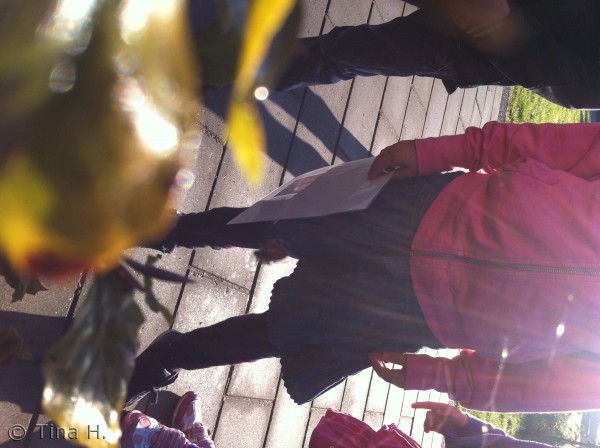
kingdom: Animalia
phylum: Arthropoda
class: Arachnida
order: Araneae
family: Araneidae
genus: Araneus
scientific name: Araneus diadematus
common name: Korsedderkop
